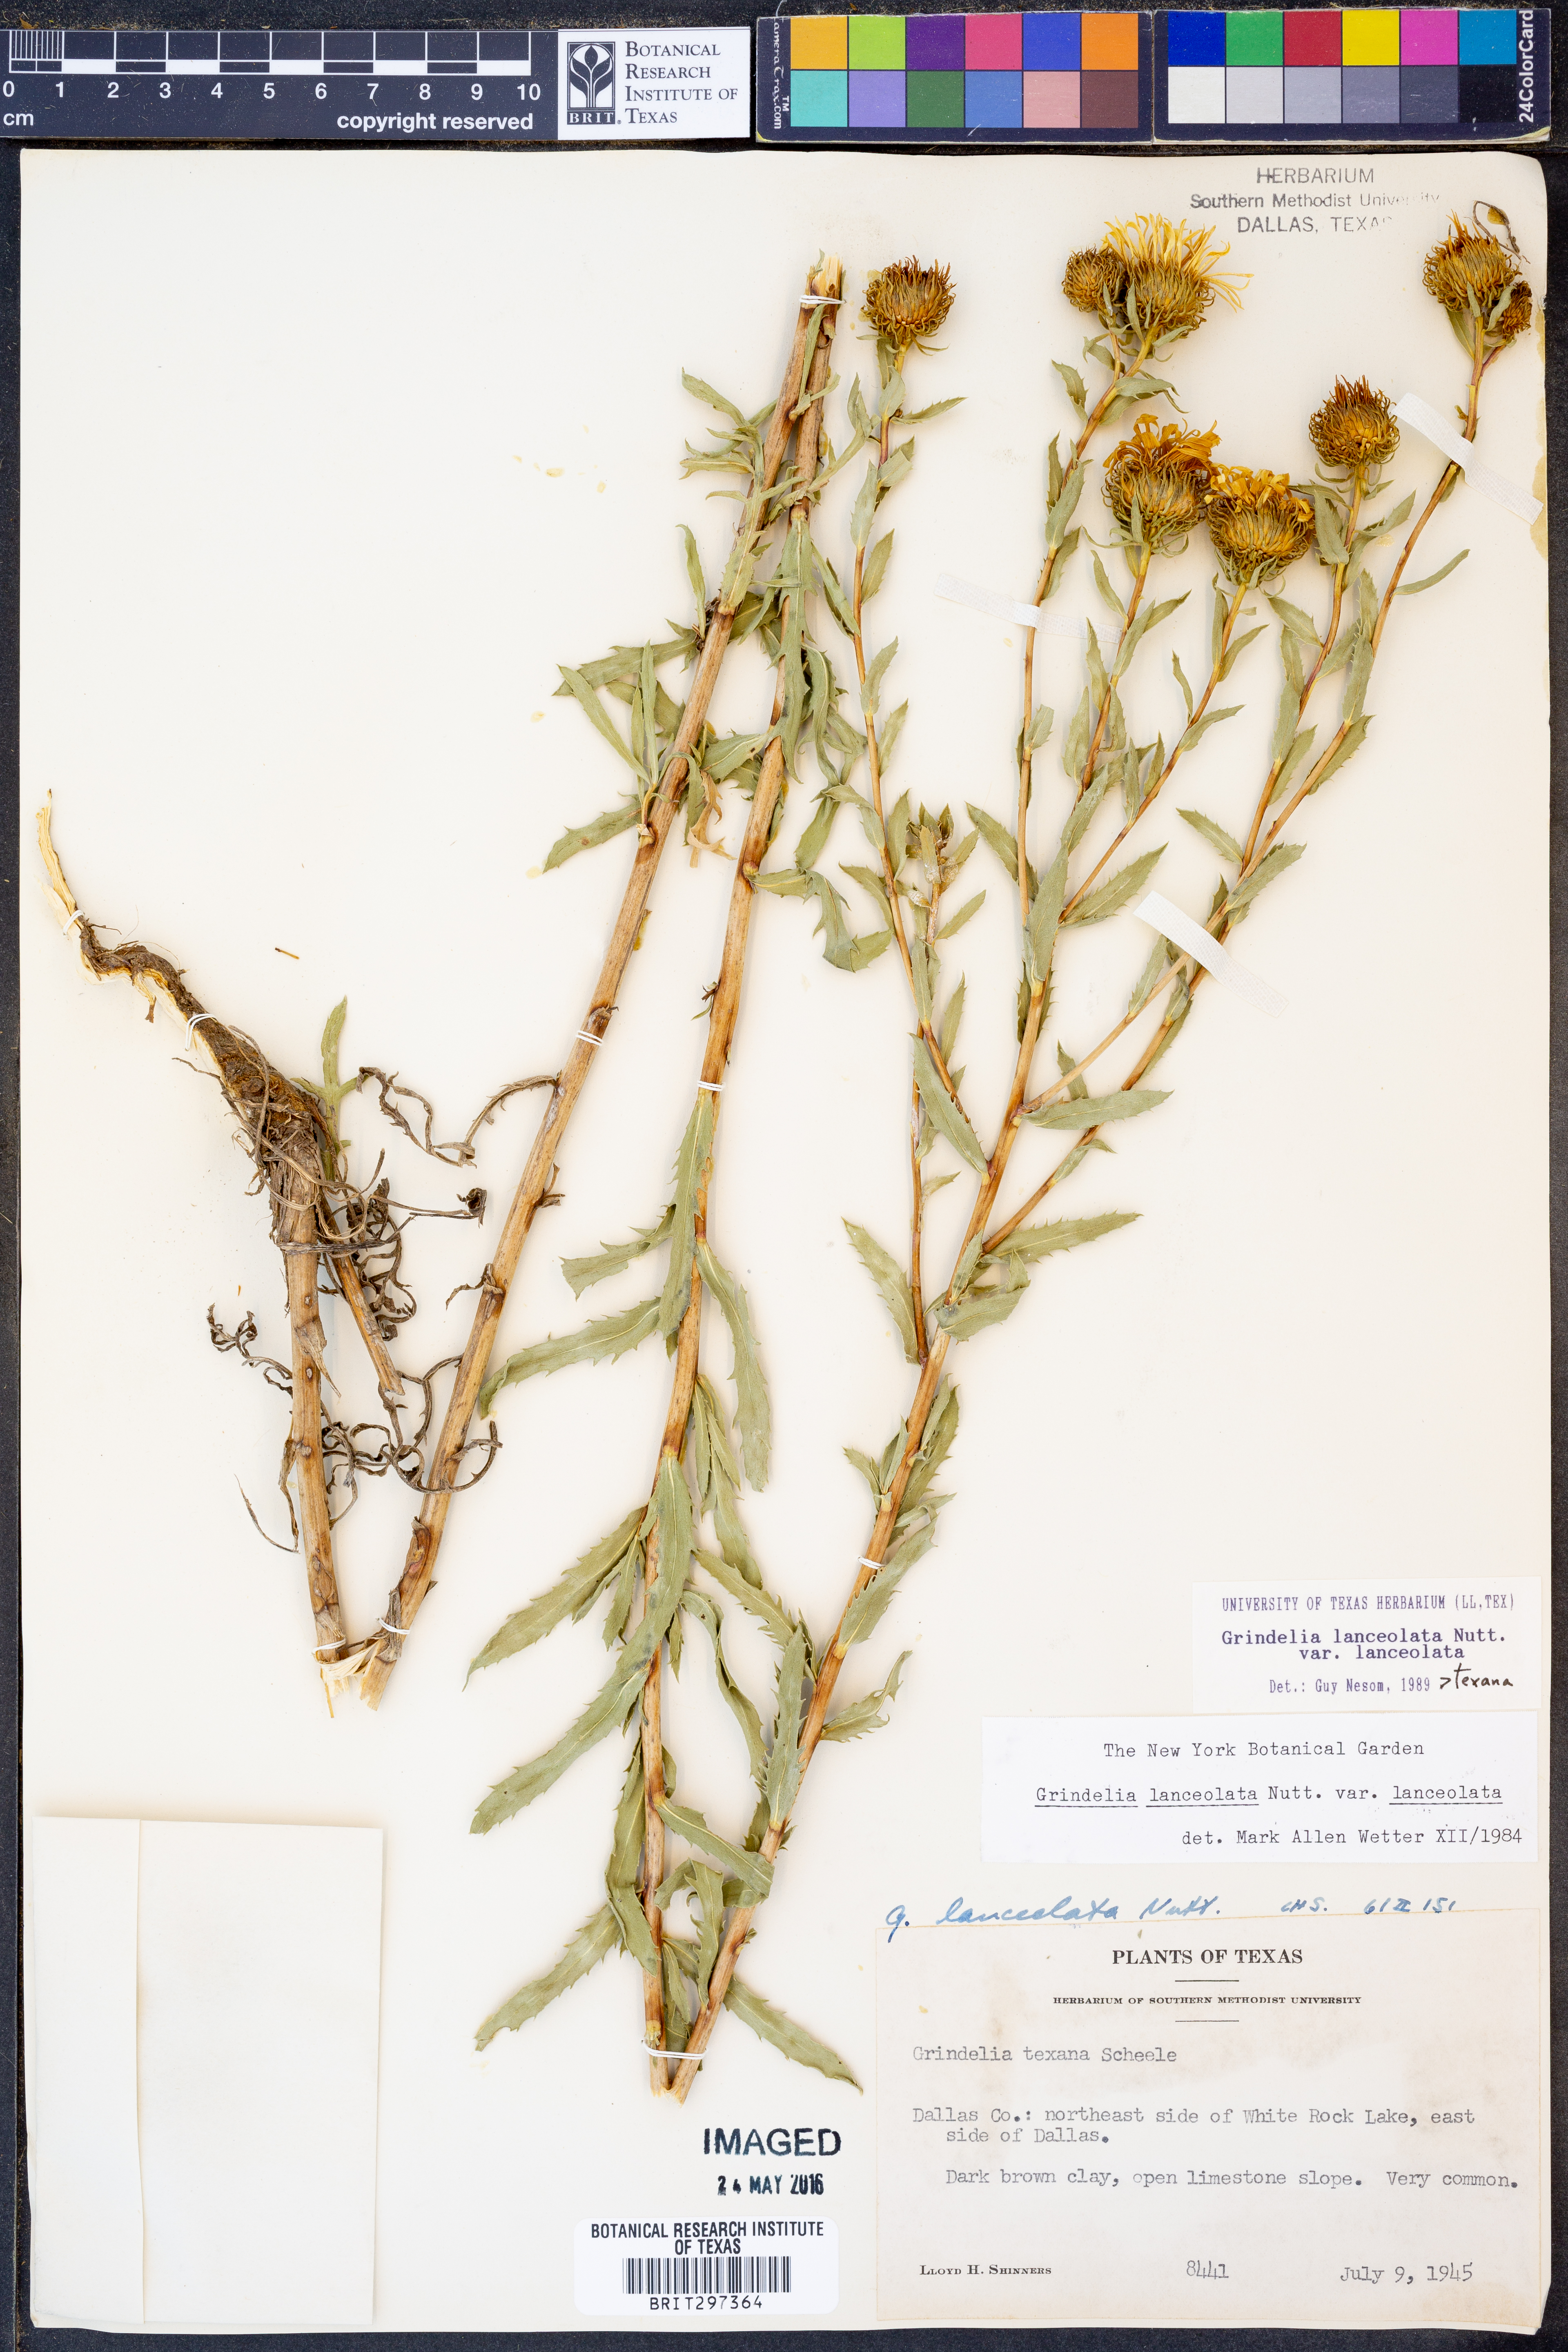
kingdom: Plantae
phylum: Tracheophyta
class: Magnoliopsida
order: Asterales
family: Asteraceae
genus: Grindelia
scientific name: Grindelia lanceolata
